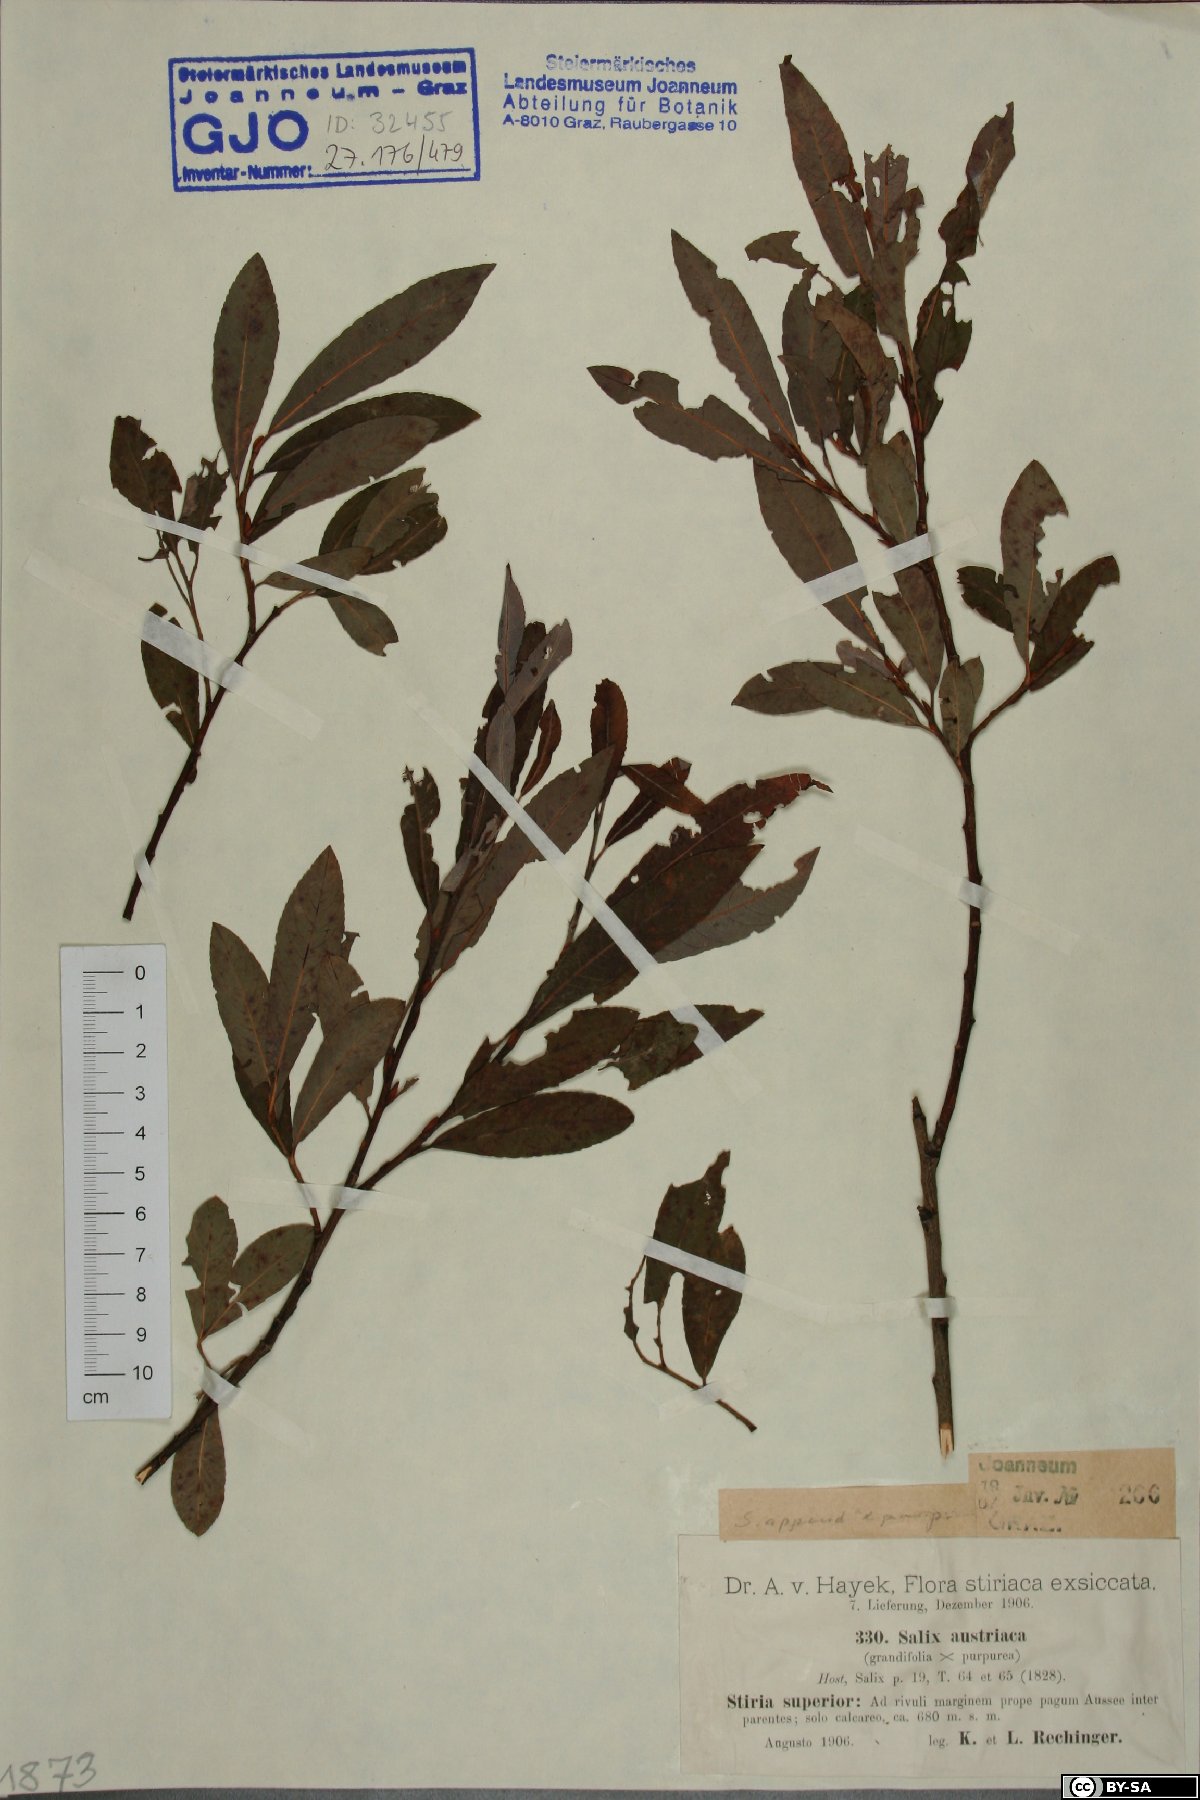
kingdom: Plantae
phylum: Tracheophyta
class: Magnoliopsida
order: Malpighiales
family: Salicaceae
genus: Salix
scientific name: Salix austriaca
